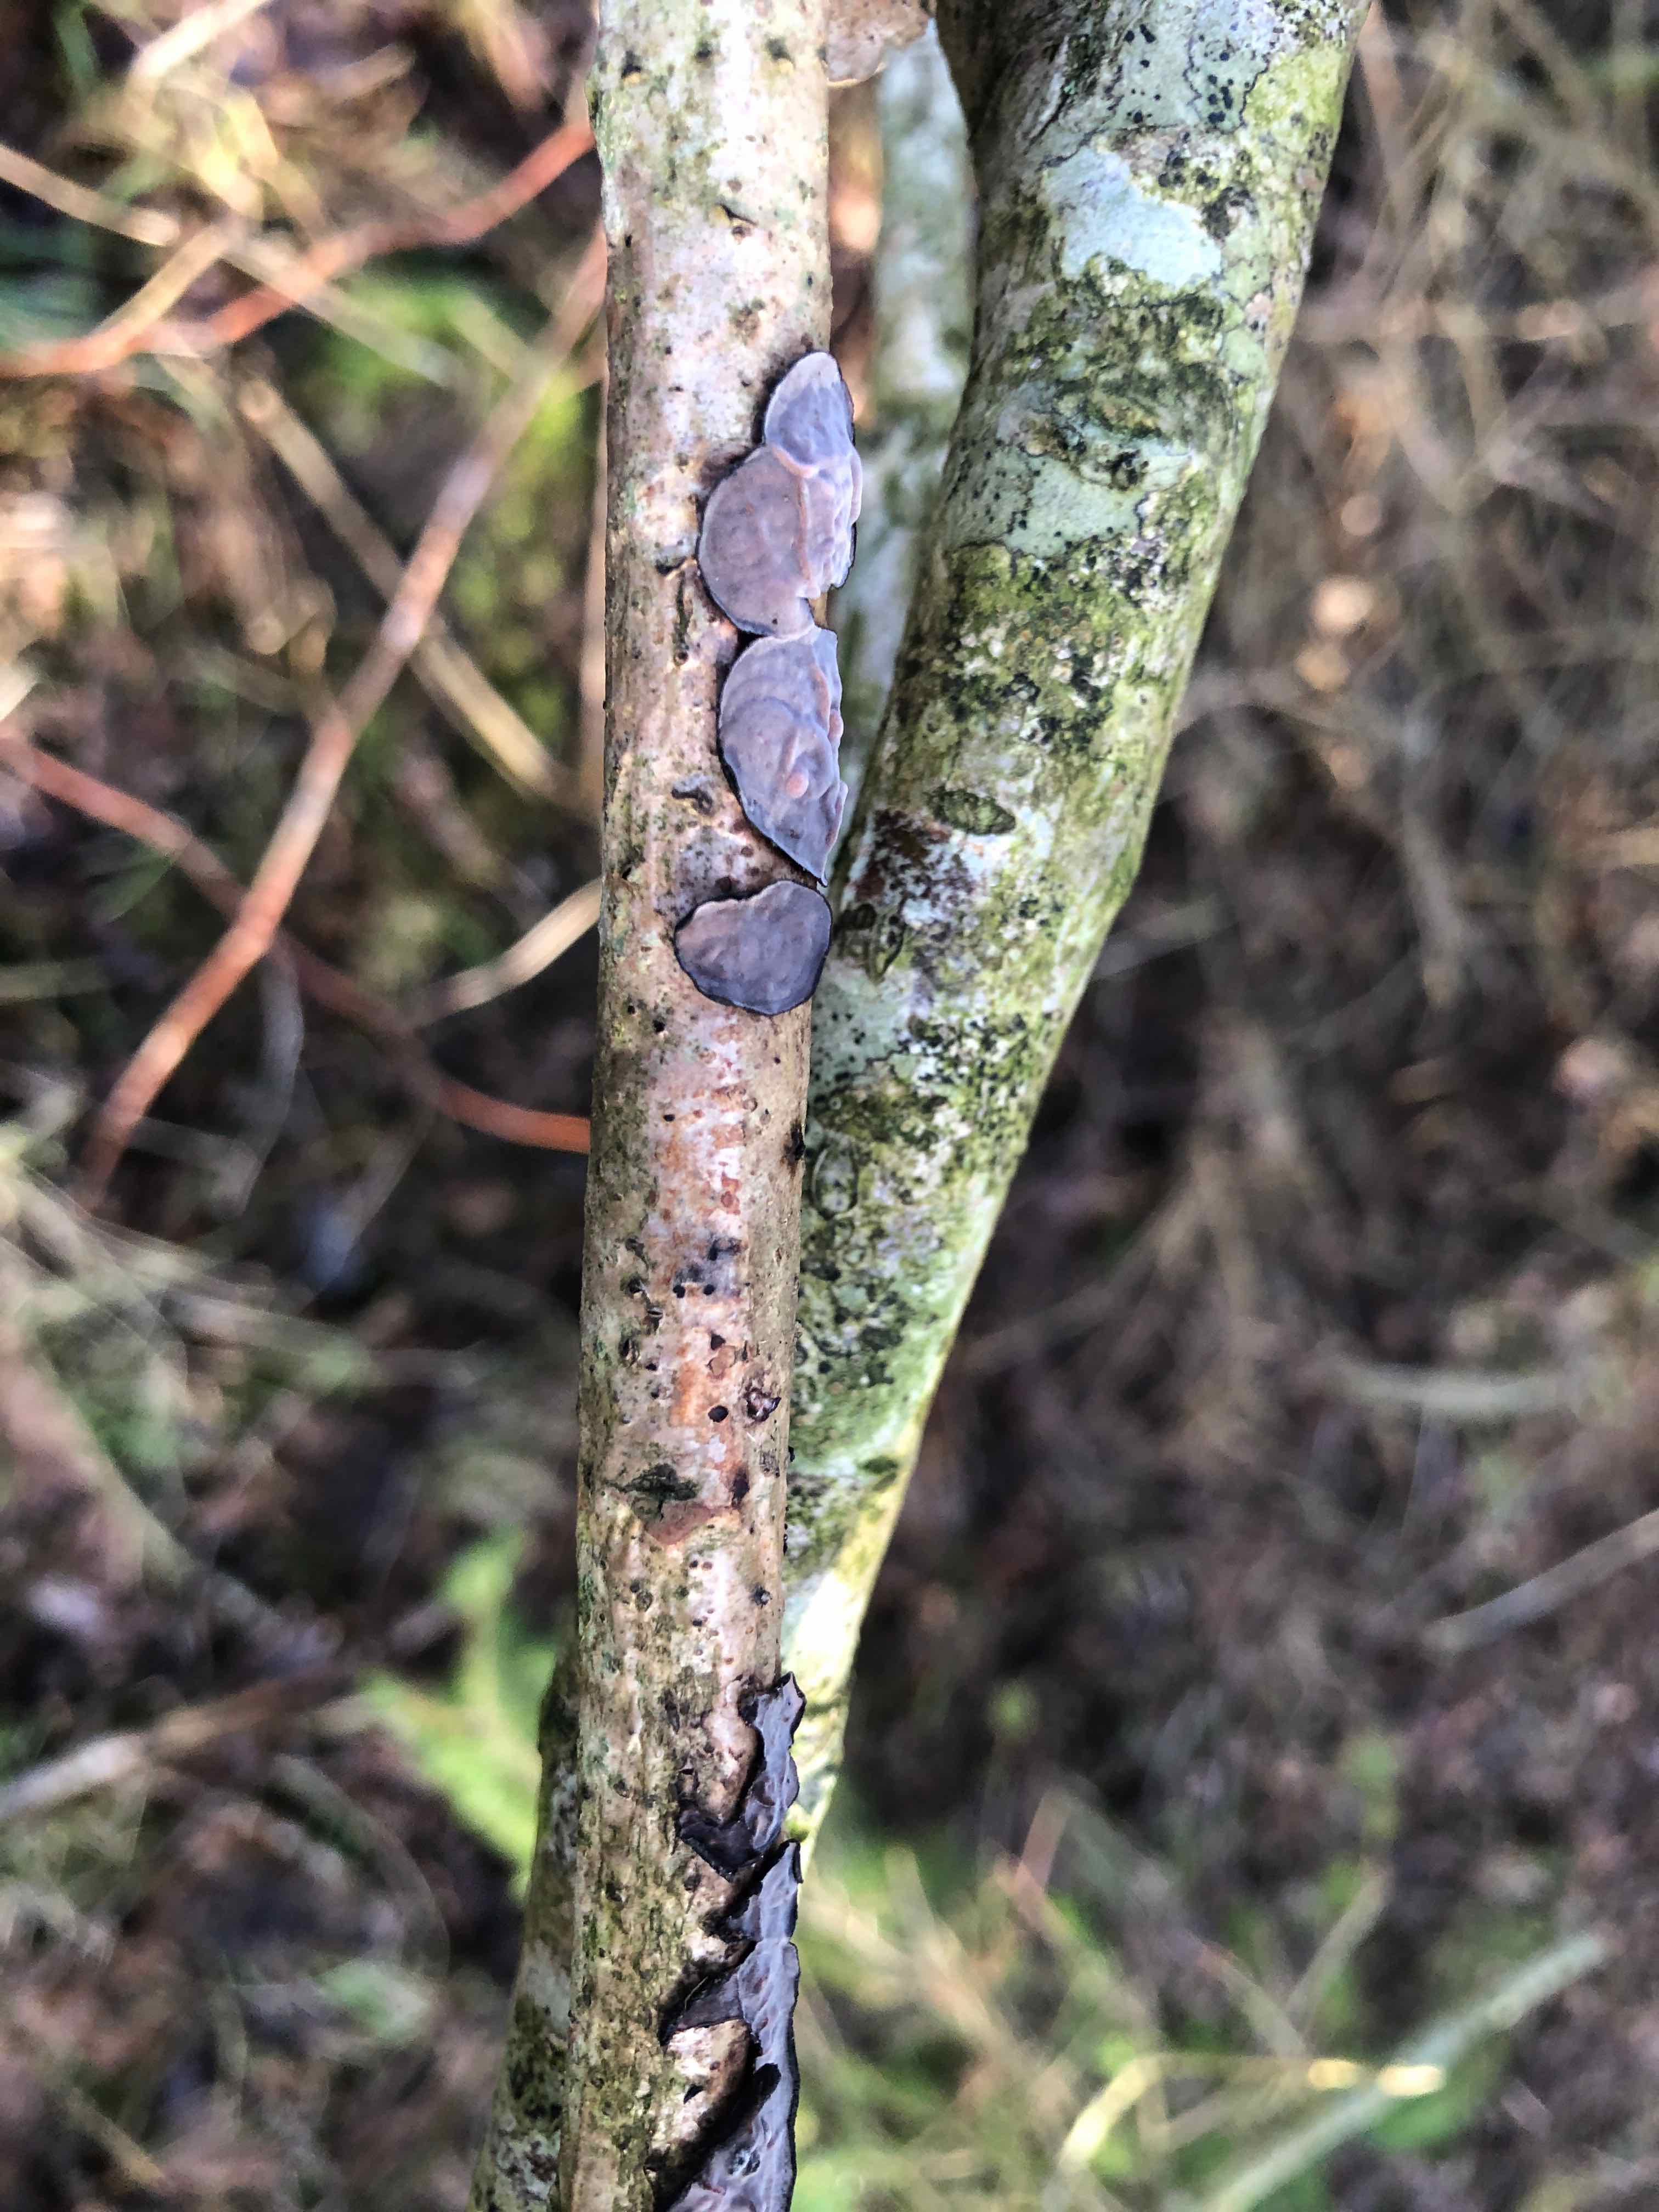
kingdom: Fungi
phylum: Basidiomycota
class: Agaricomycetes
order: Russulales
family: Peniophoraceae
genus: Peniophora
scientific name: Peniophora quercina
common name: ege-voksskind
